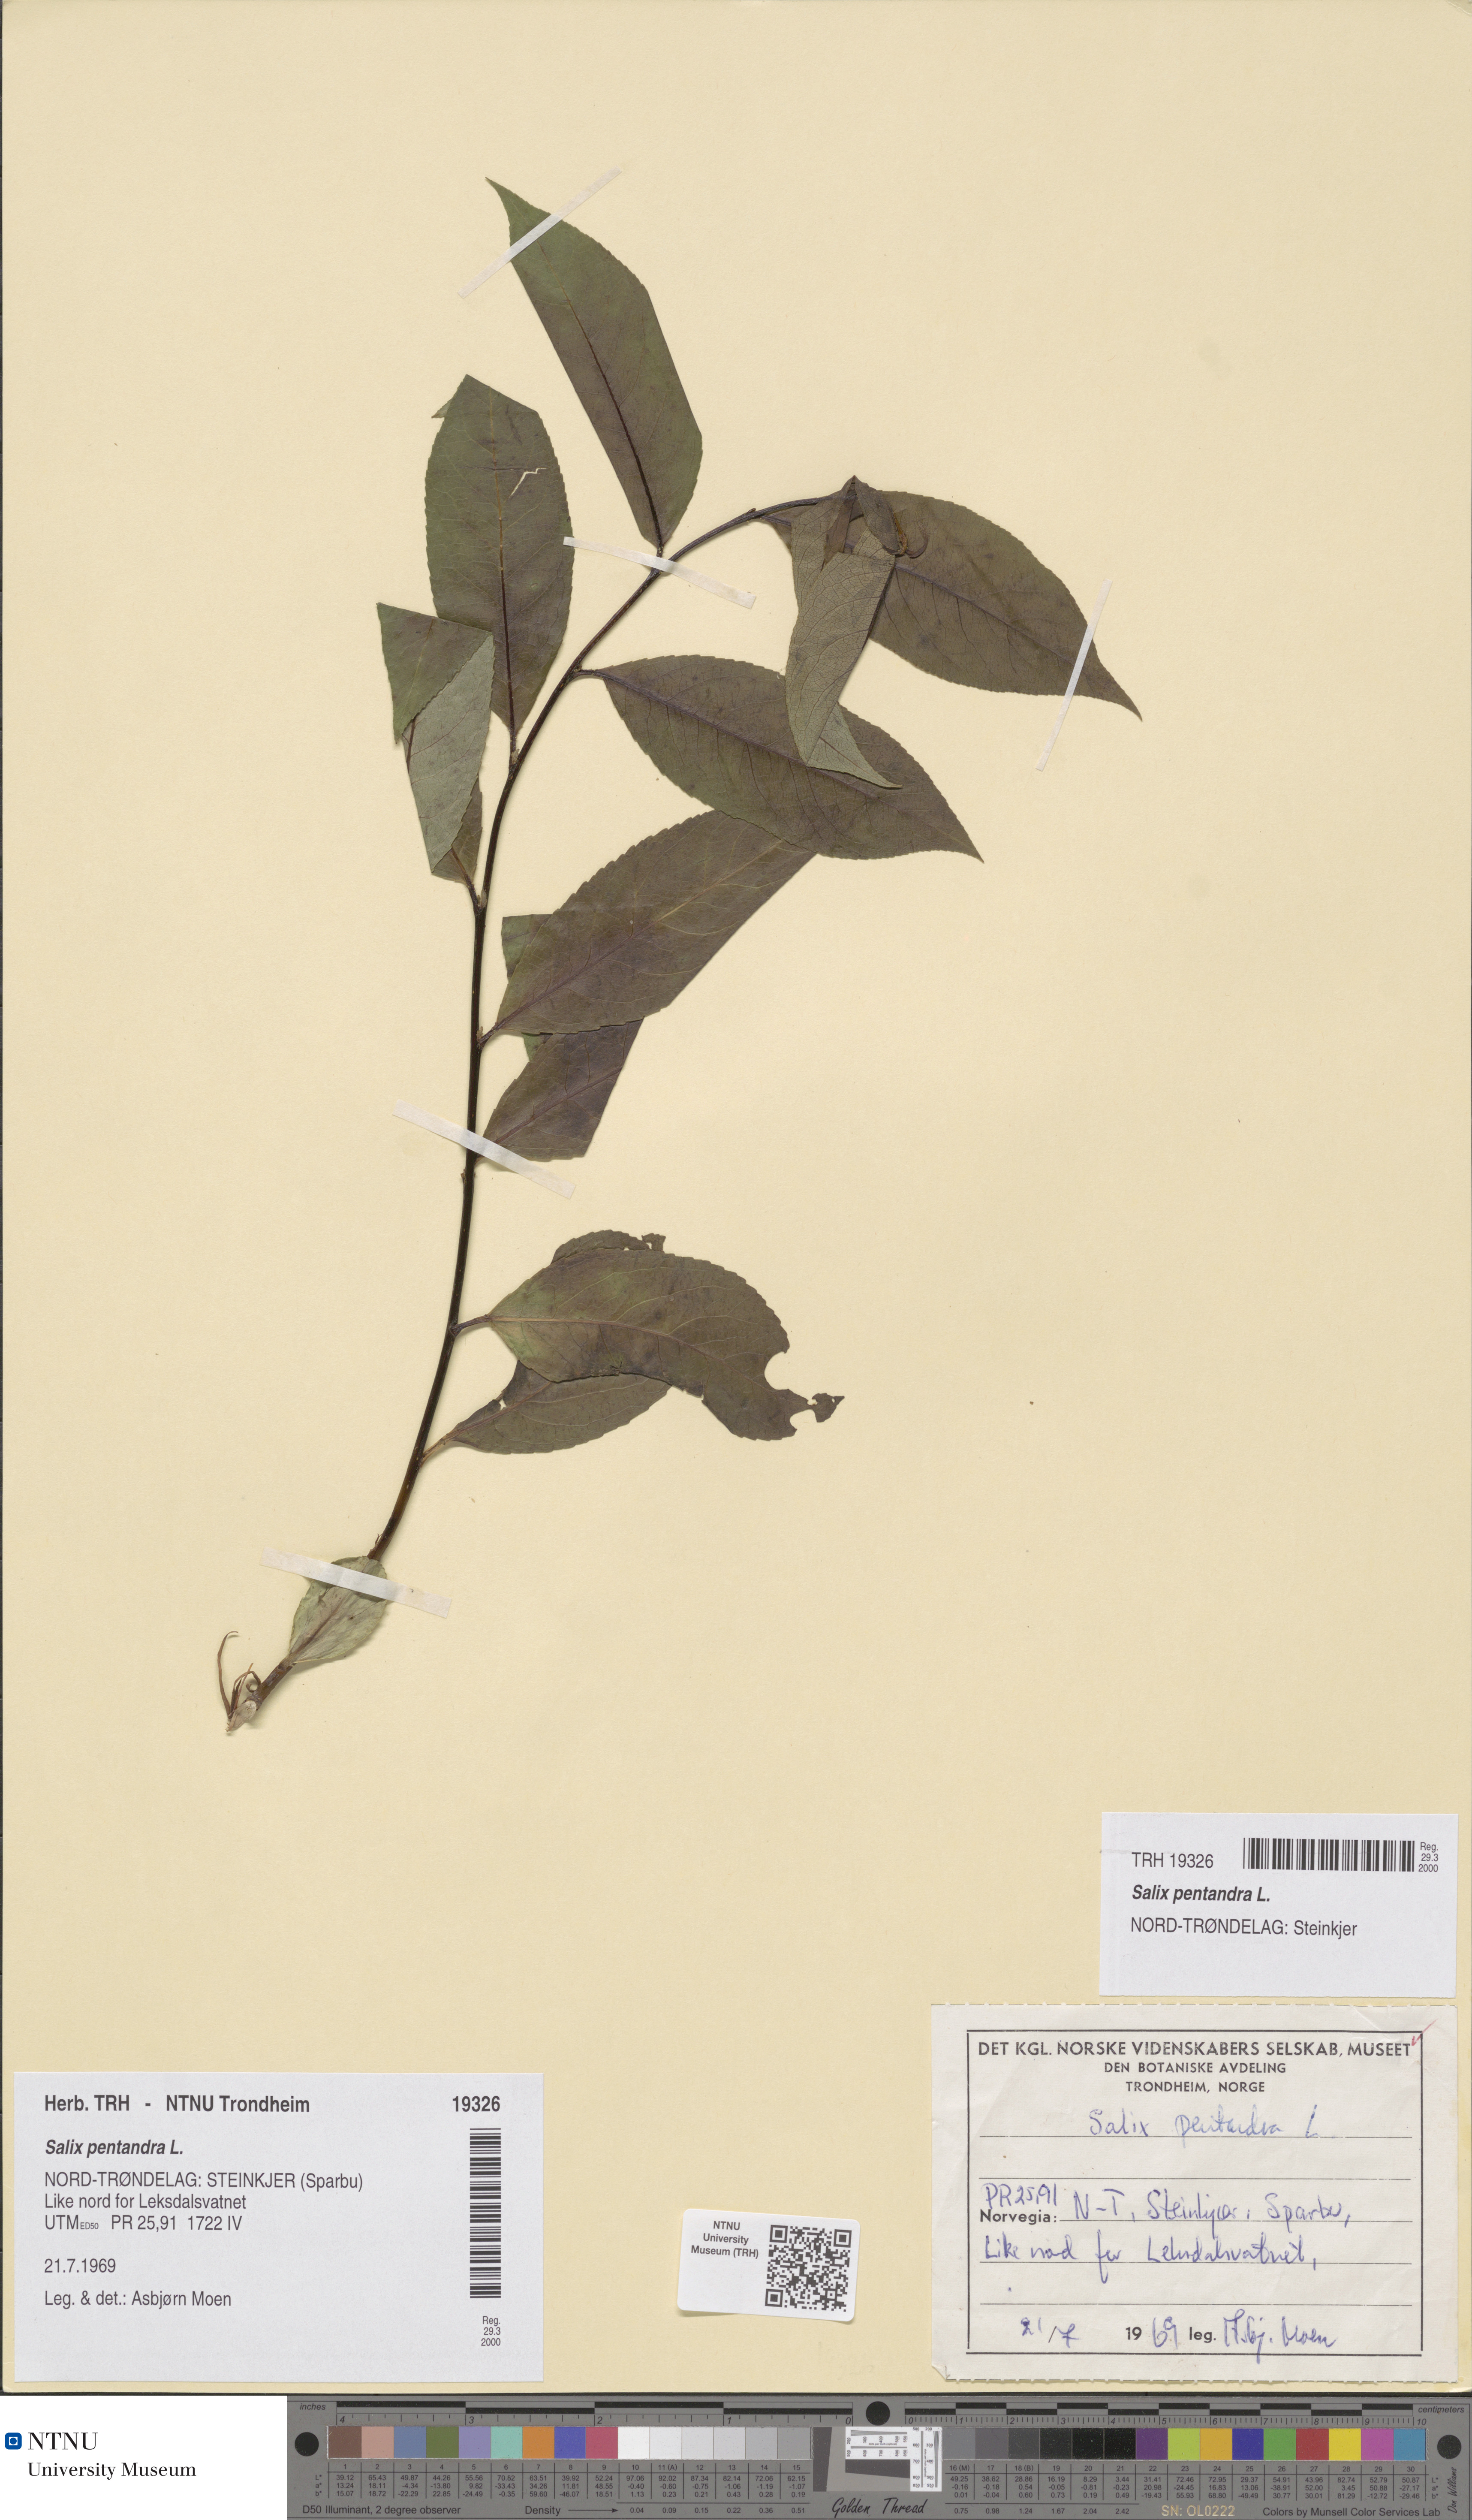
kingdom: Plantae
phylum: Tracheophyta
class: Magnoliopsida
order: Malpighiales
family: Salicaceae
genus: Salix
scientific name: Salix pentandra
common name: Bay willow
